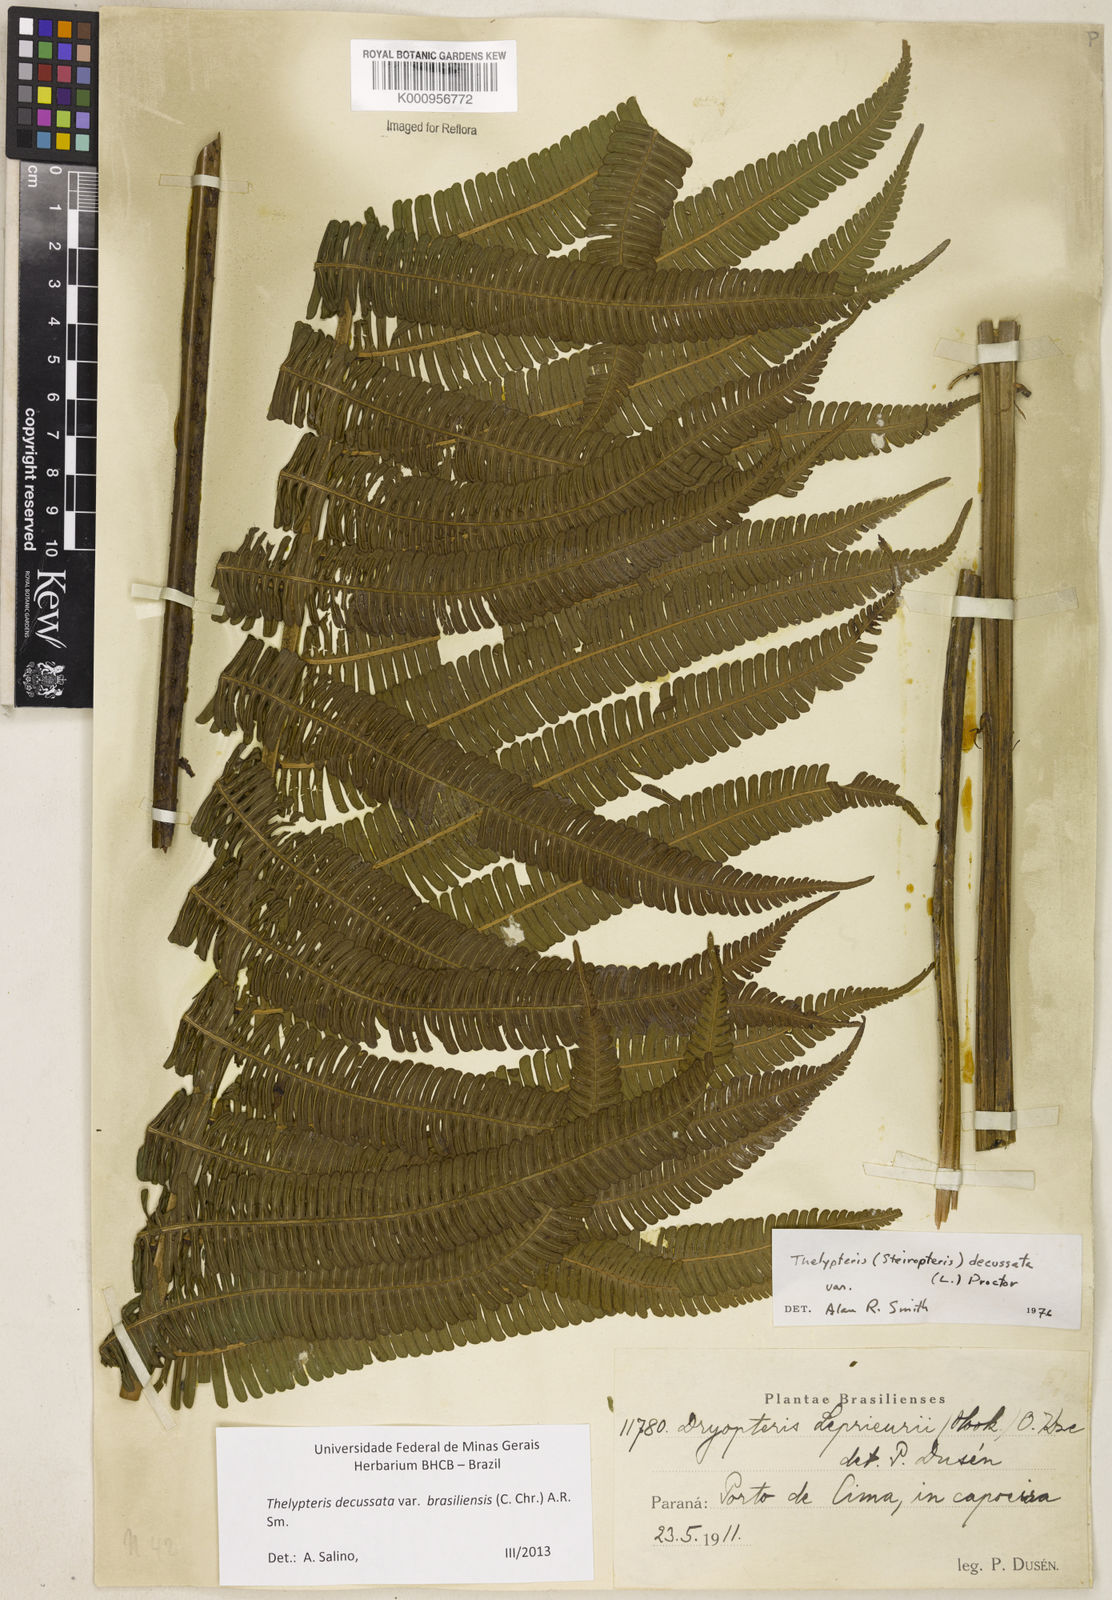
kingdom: Plantae
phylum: Tracheophyta
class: Polypodiopsida
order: Polypodiales
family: Thelypteridaceae
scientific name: Thelypteridaceae
